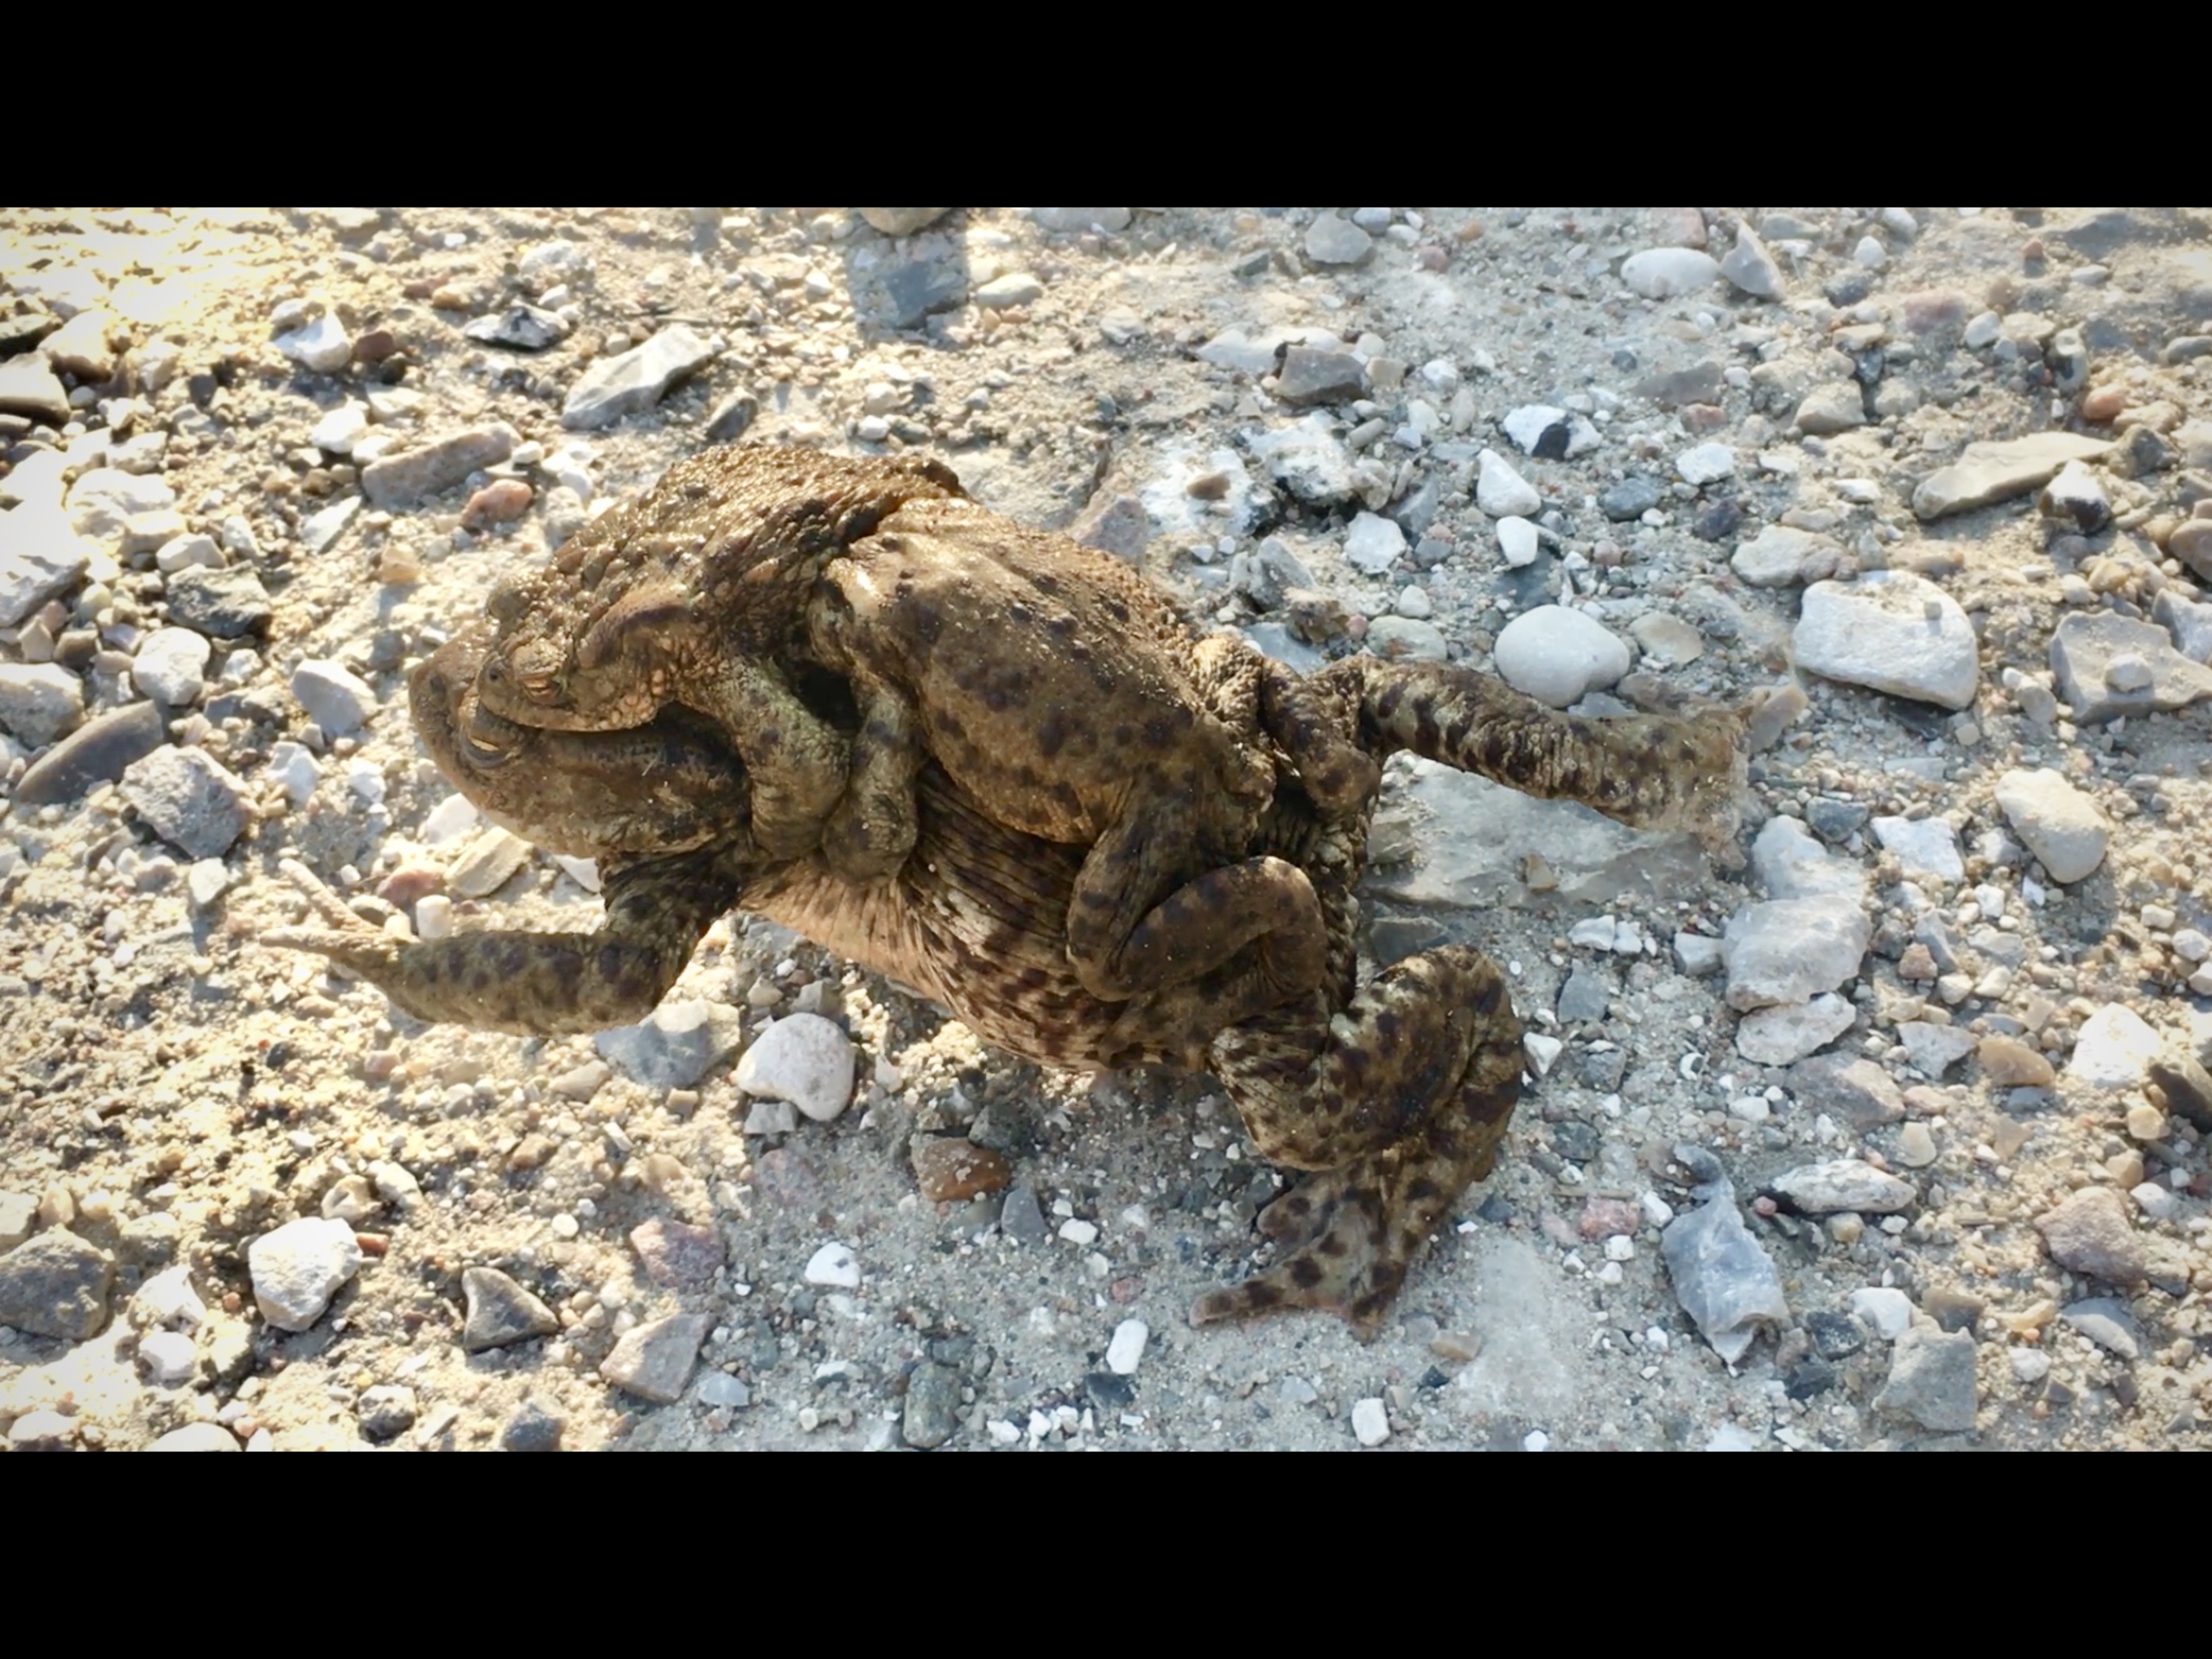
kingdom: Animalia
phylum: Chordata
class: Amphibia
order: Anura
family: Bufonidae
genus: Bufo
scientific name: Bufo bufo
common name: Skrubtudse
